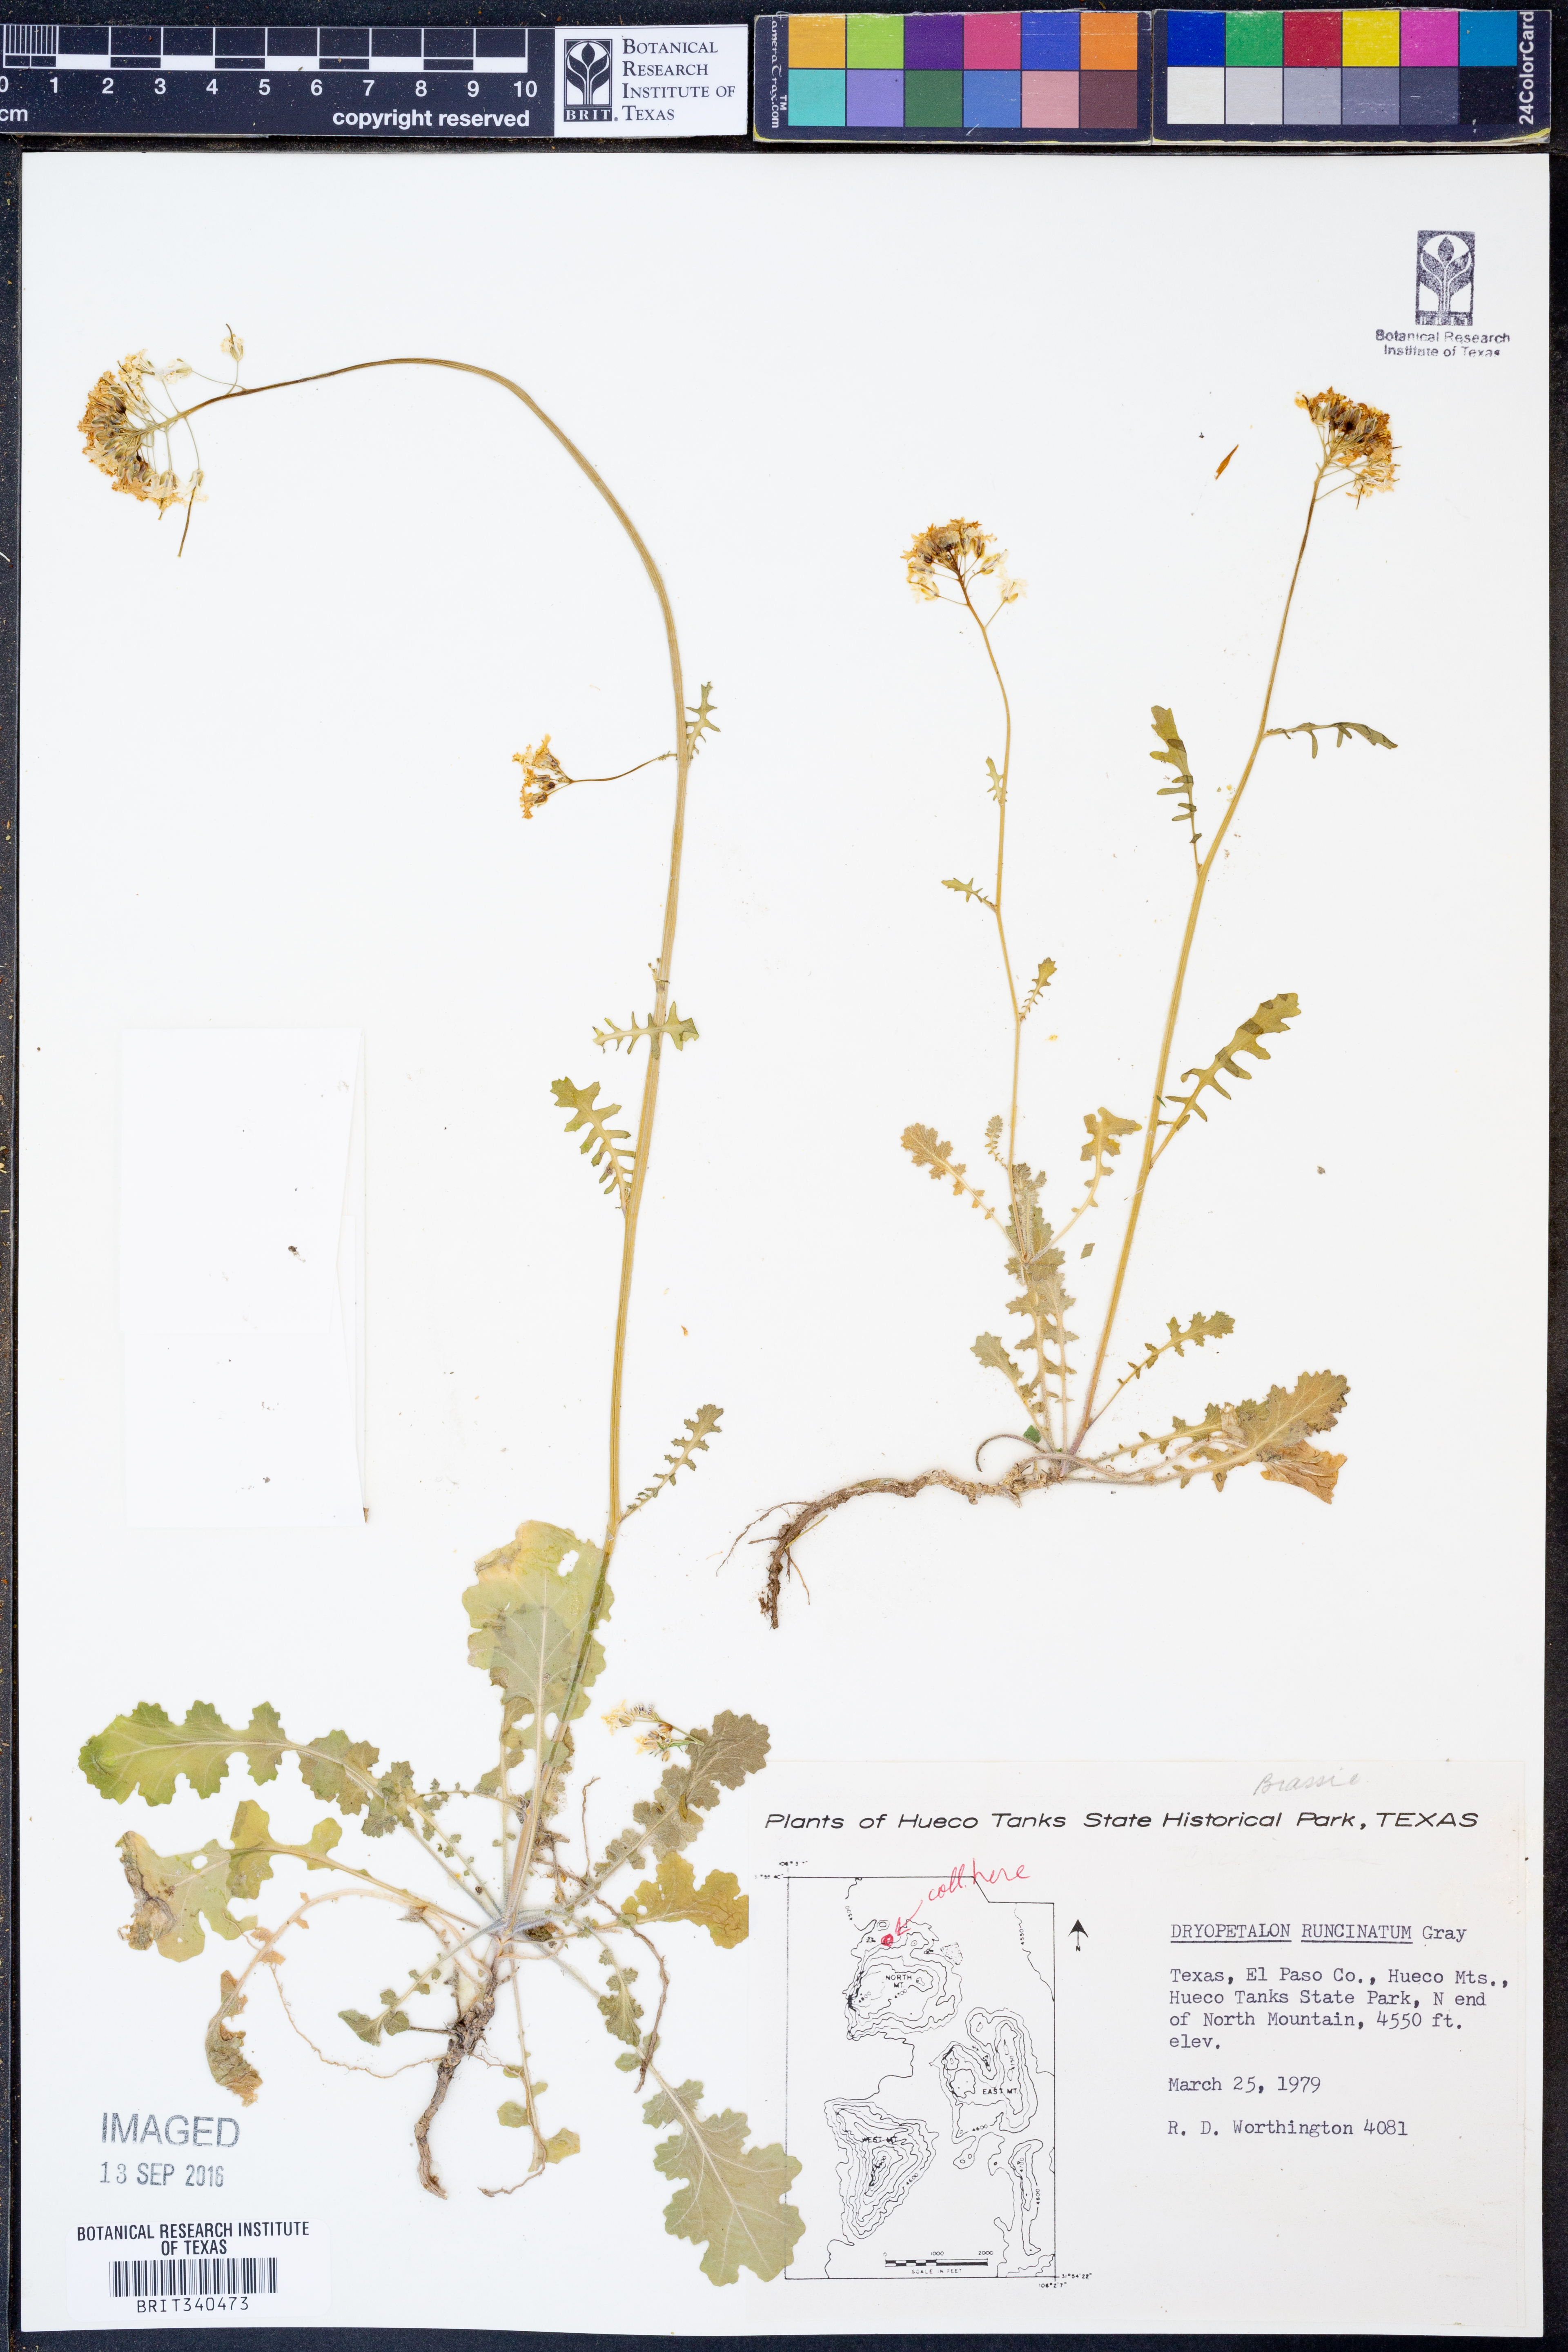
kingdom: Plantae
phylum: Tracheophyta
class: Magnoliopsida
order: Brassicales
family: Brassicaceae
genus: Dryopetalon
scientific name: Dryopetalon runcinatum
